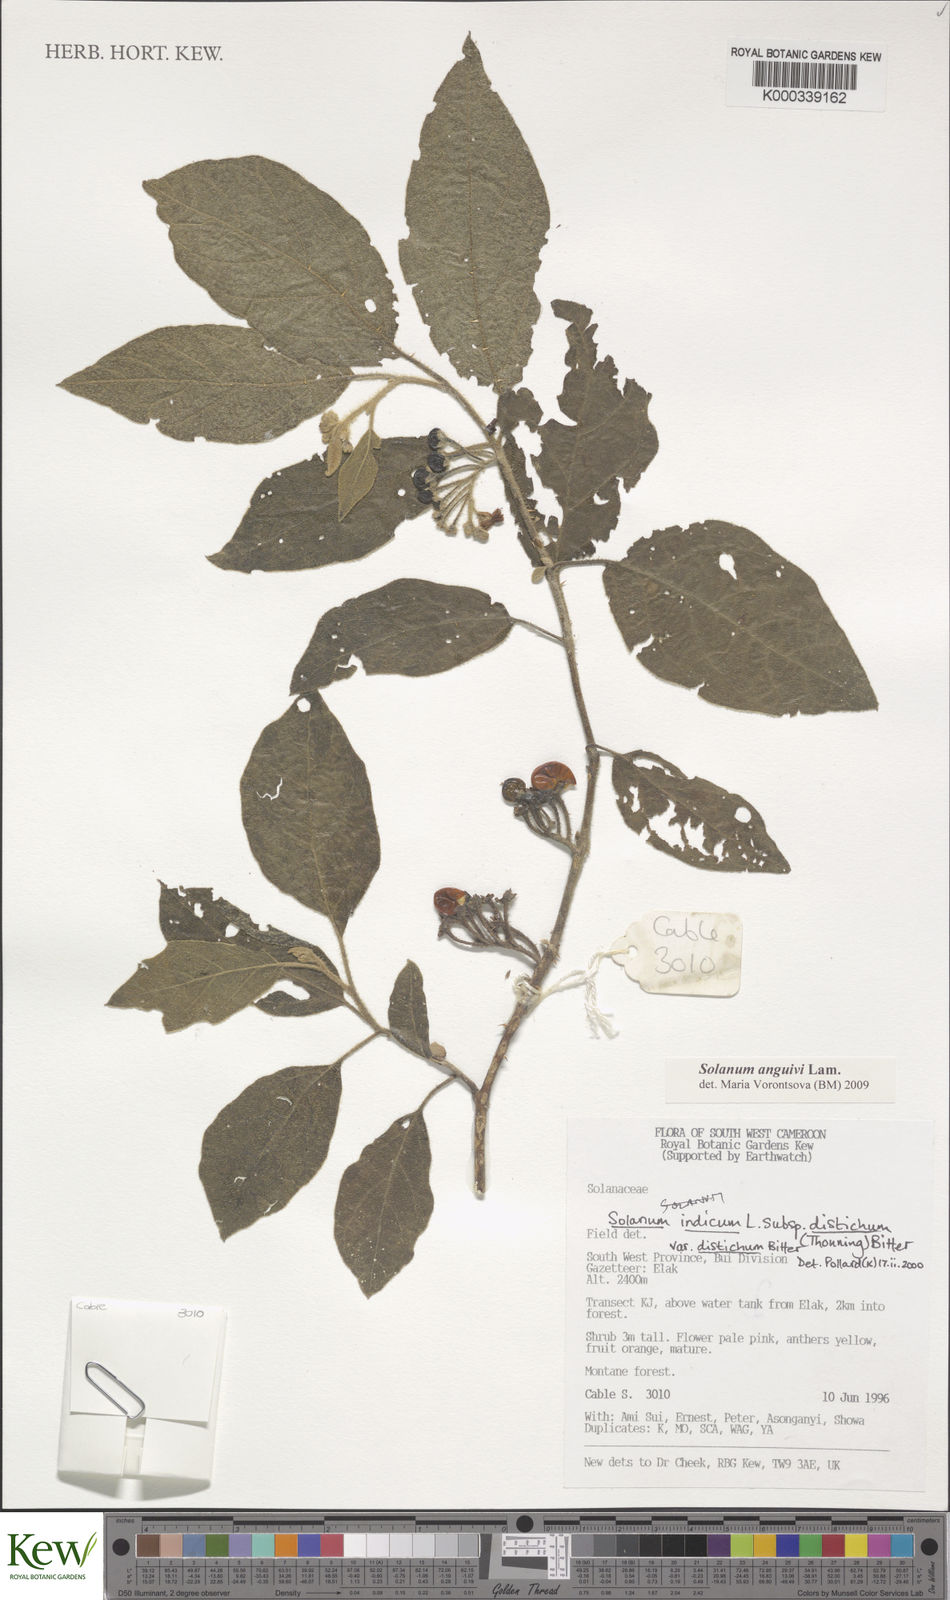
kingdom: Plantae
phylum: Tracheophyta
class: Magnoliopsida
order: Solanales
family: Solanaceae
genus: Solanum
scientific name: Solanum violaceum
